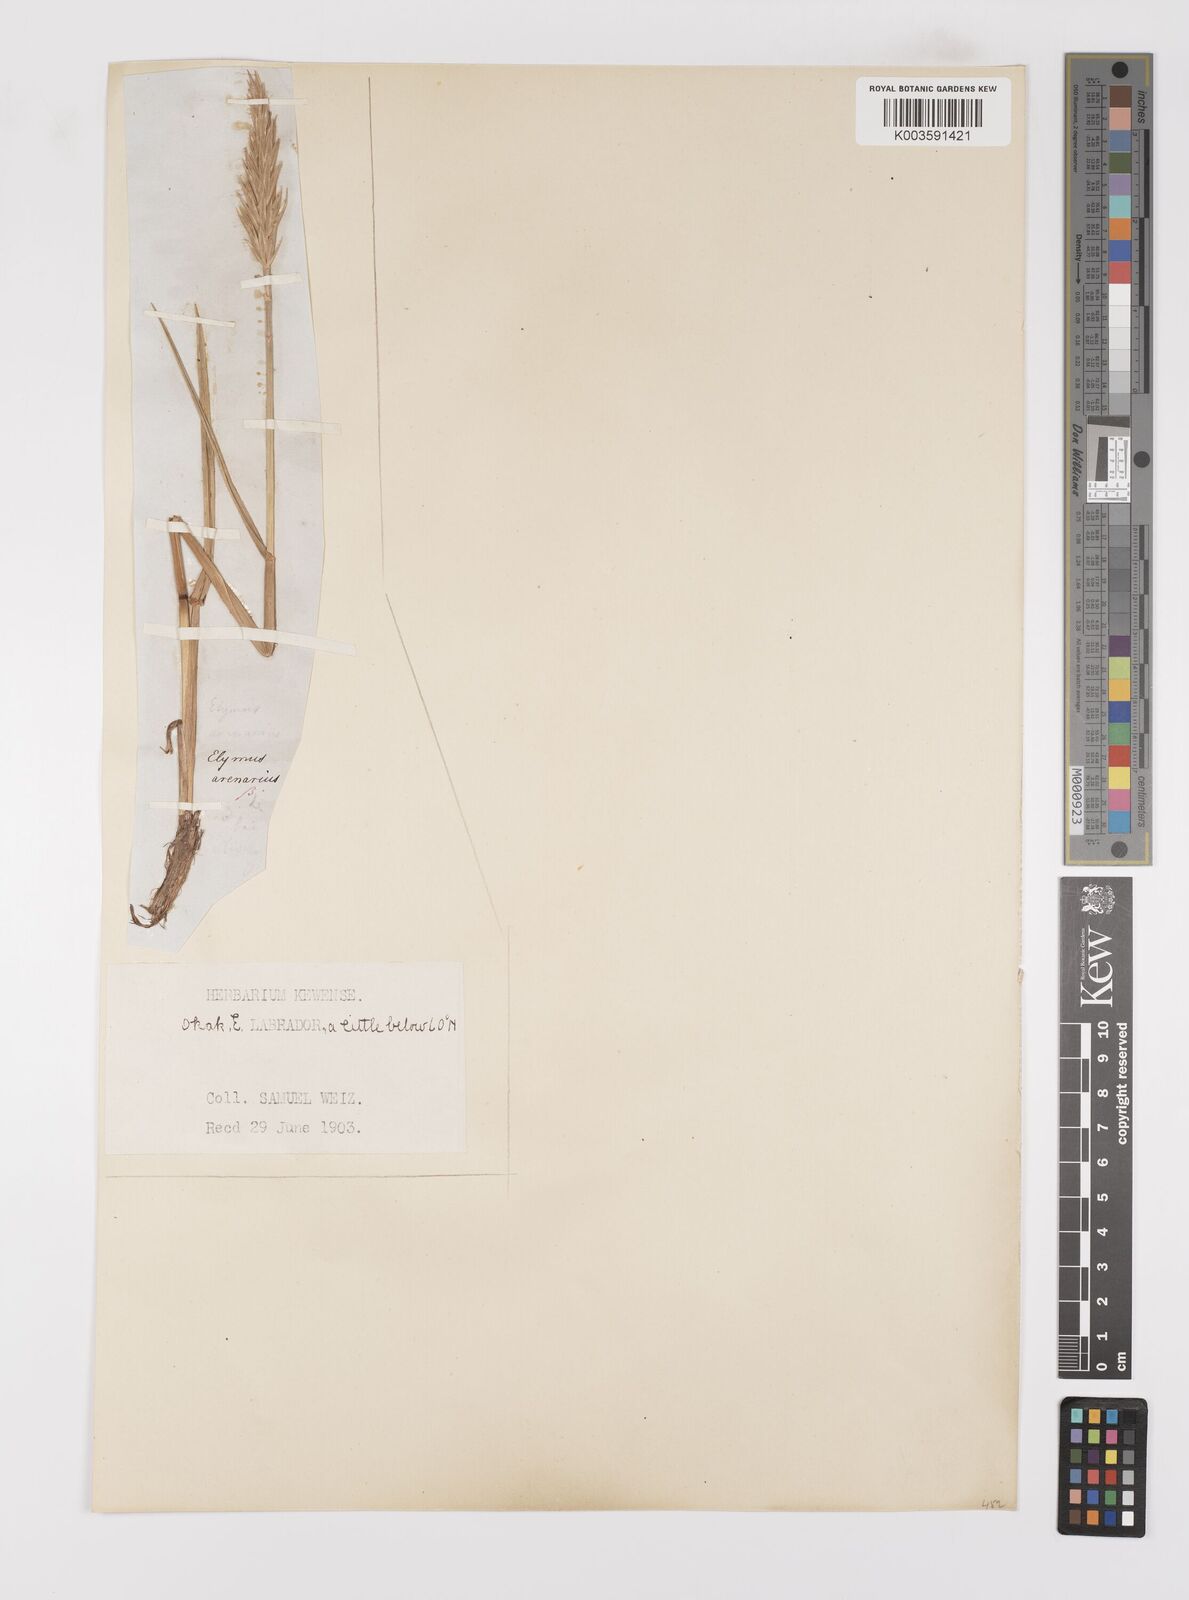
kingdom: Plantae
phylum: Tracheophyta
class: Liliopsida
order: Poales
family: Poaceae
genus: Leymus
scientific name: Leymus mollis
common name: American dune grass
